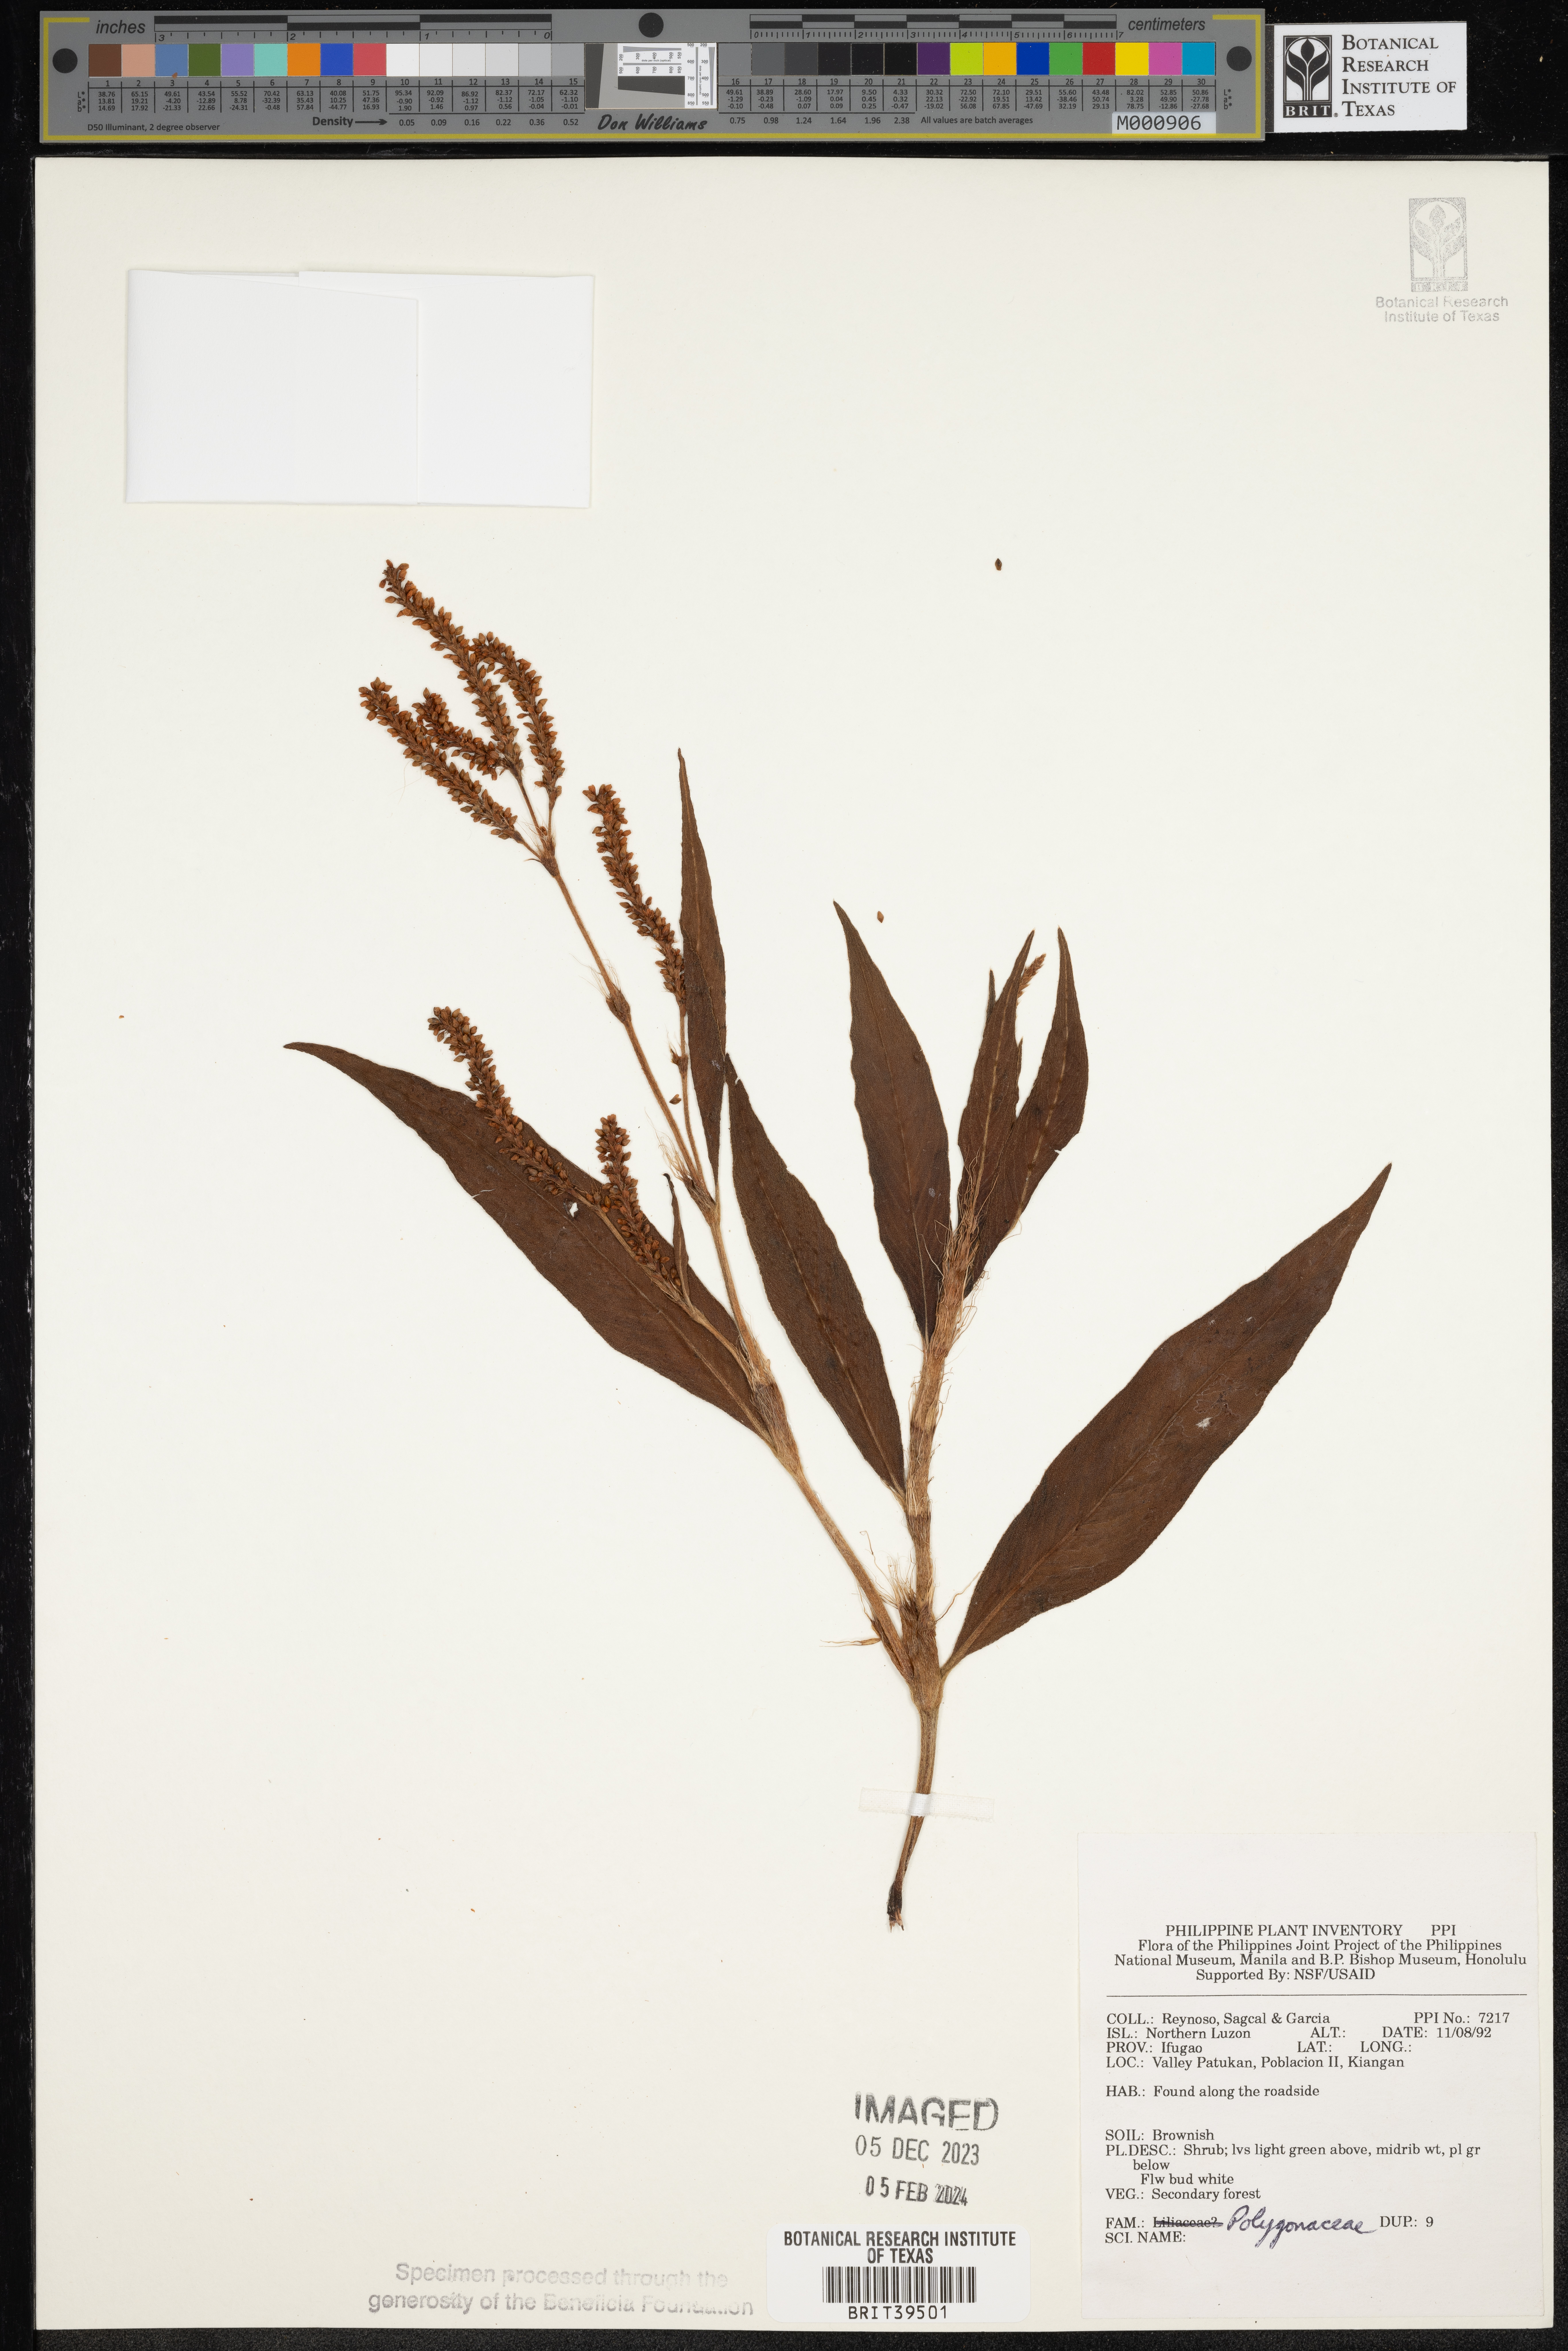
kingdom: Plantae
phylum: Tracheophyta
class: Magnoliopsida
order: Caryophyllales
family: Polygonaceae
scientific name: Polygonaceae
